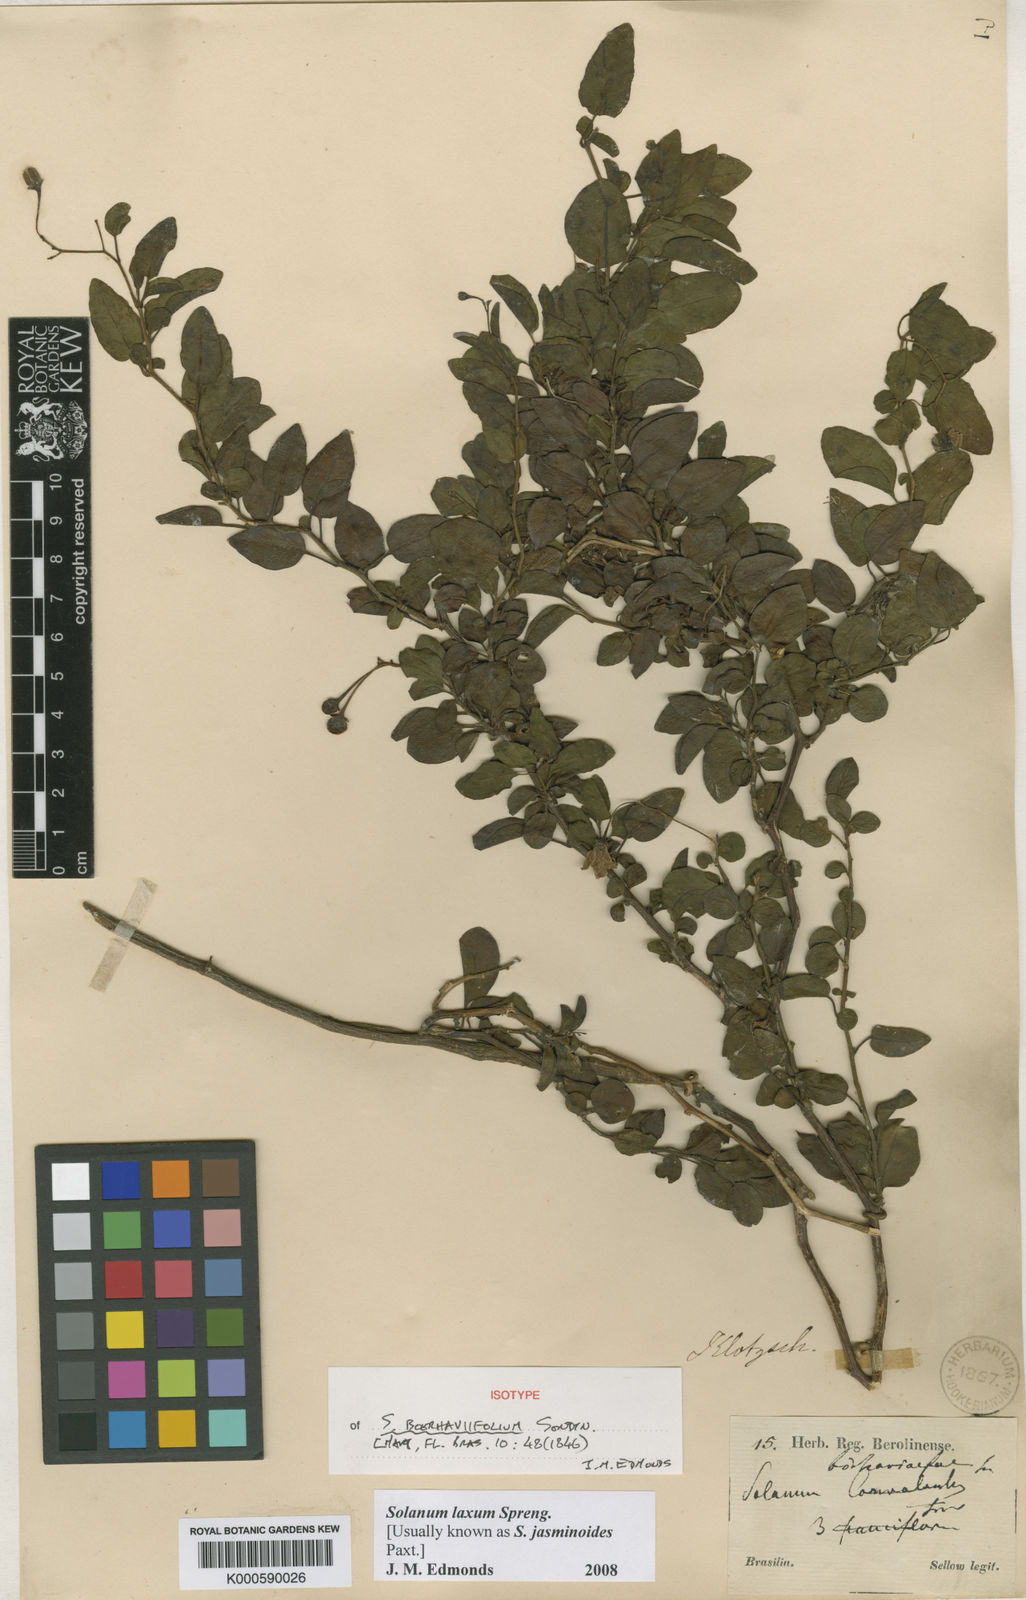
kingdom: Plantae
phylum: Tracheophyta
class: Magnoliopsida
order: Solanales
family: Solanaceae
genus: Solanum
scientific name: Solanum laxum
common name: Nightshade
